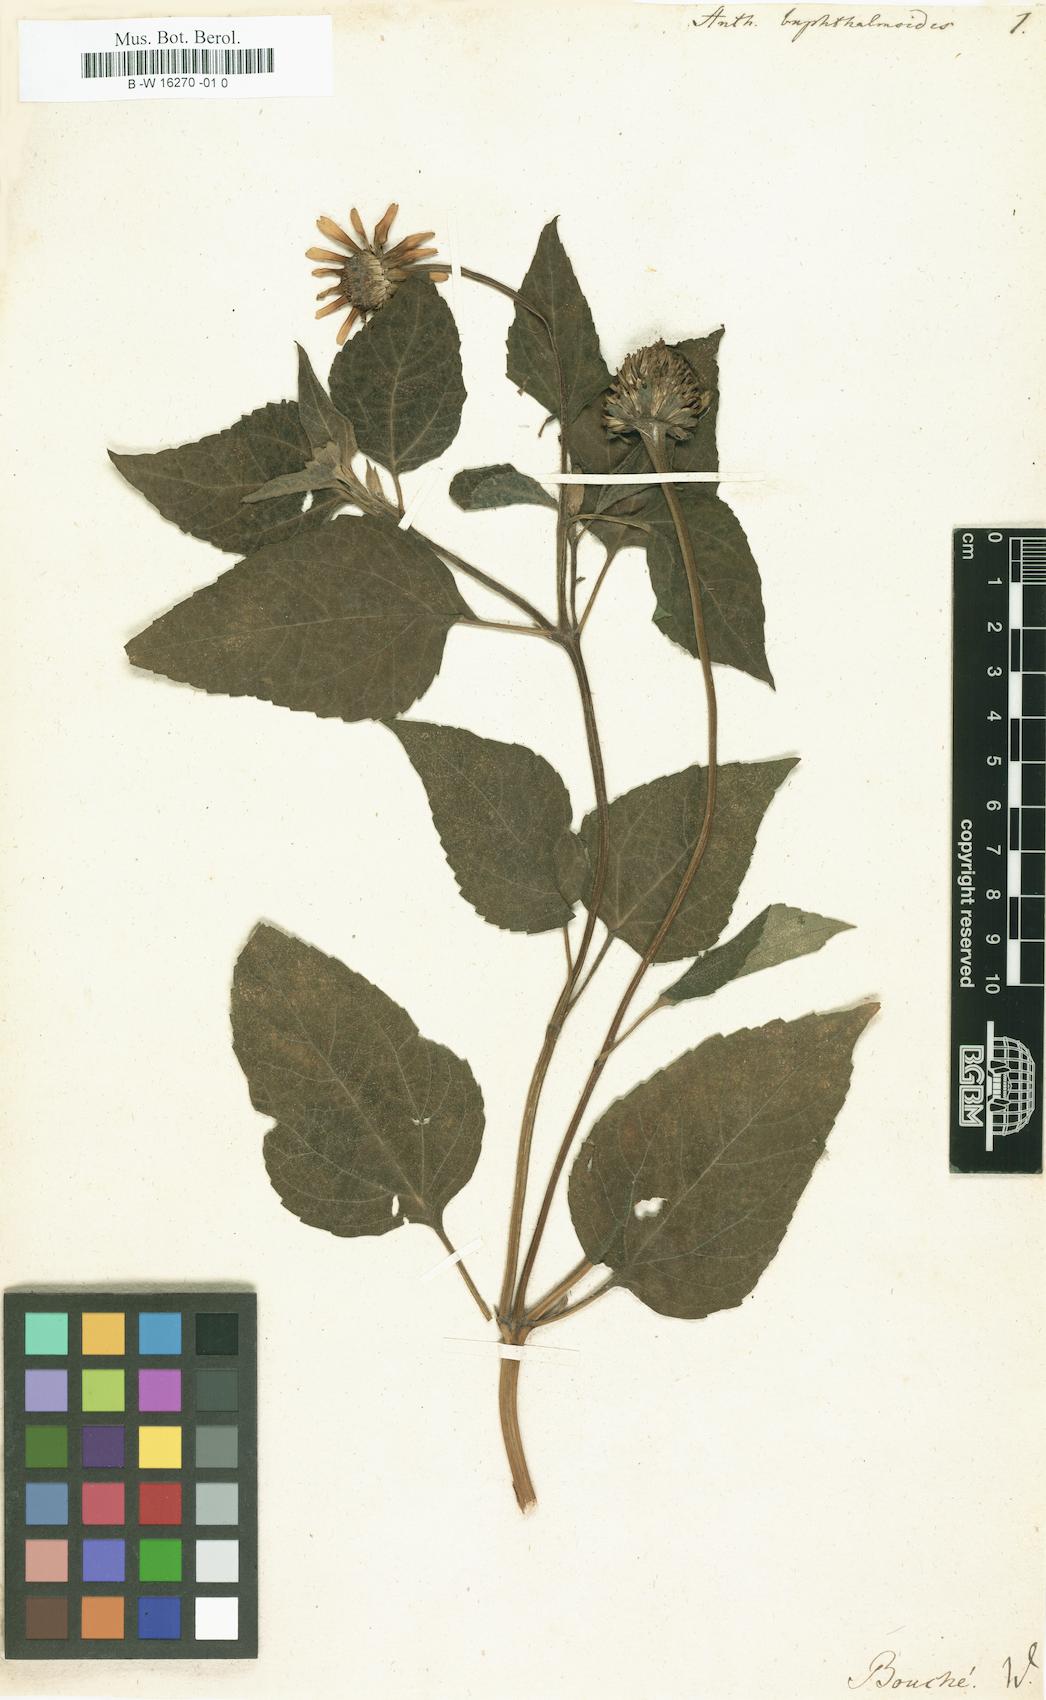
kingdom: Plantae
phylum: Tracheophyta
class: Magnoliopsida
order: Asterales
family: Asteraceae
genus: Heliopsis
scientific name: Heliopsis buphthalmoides
